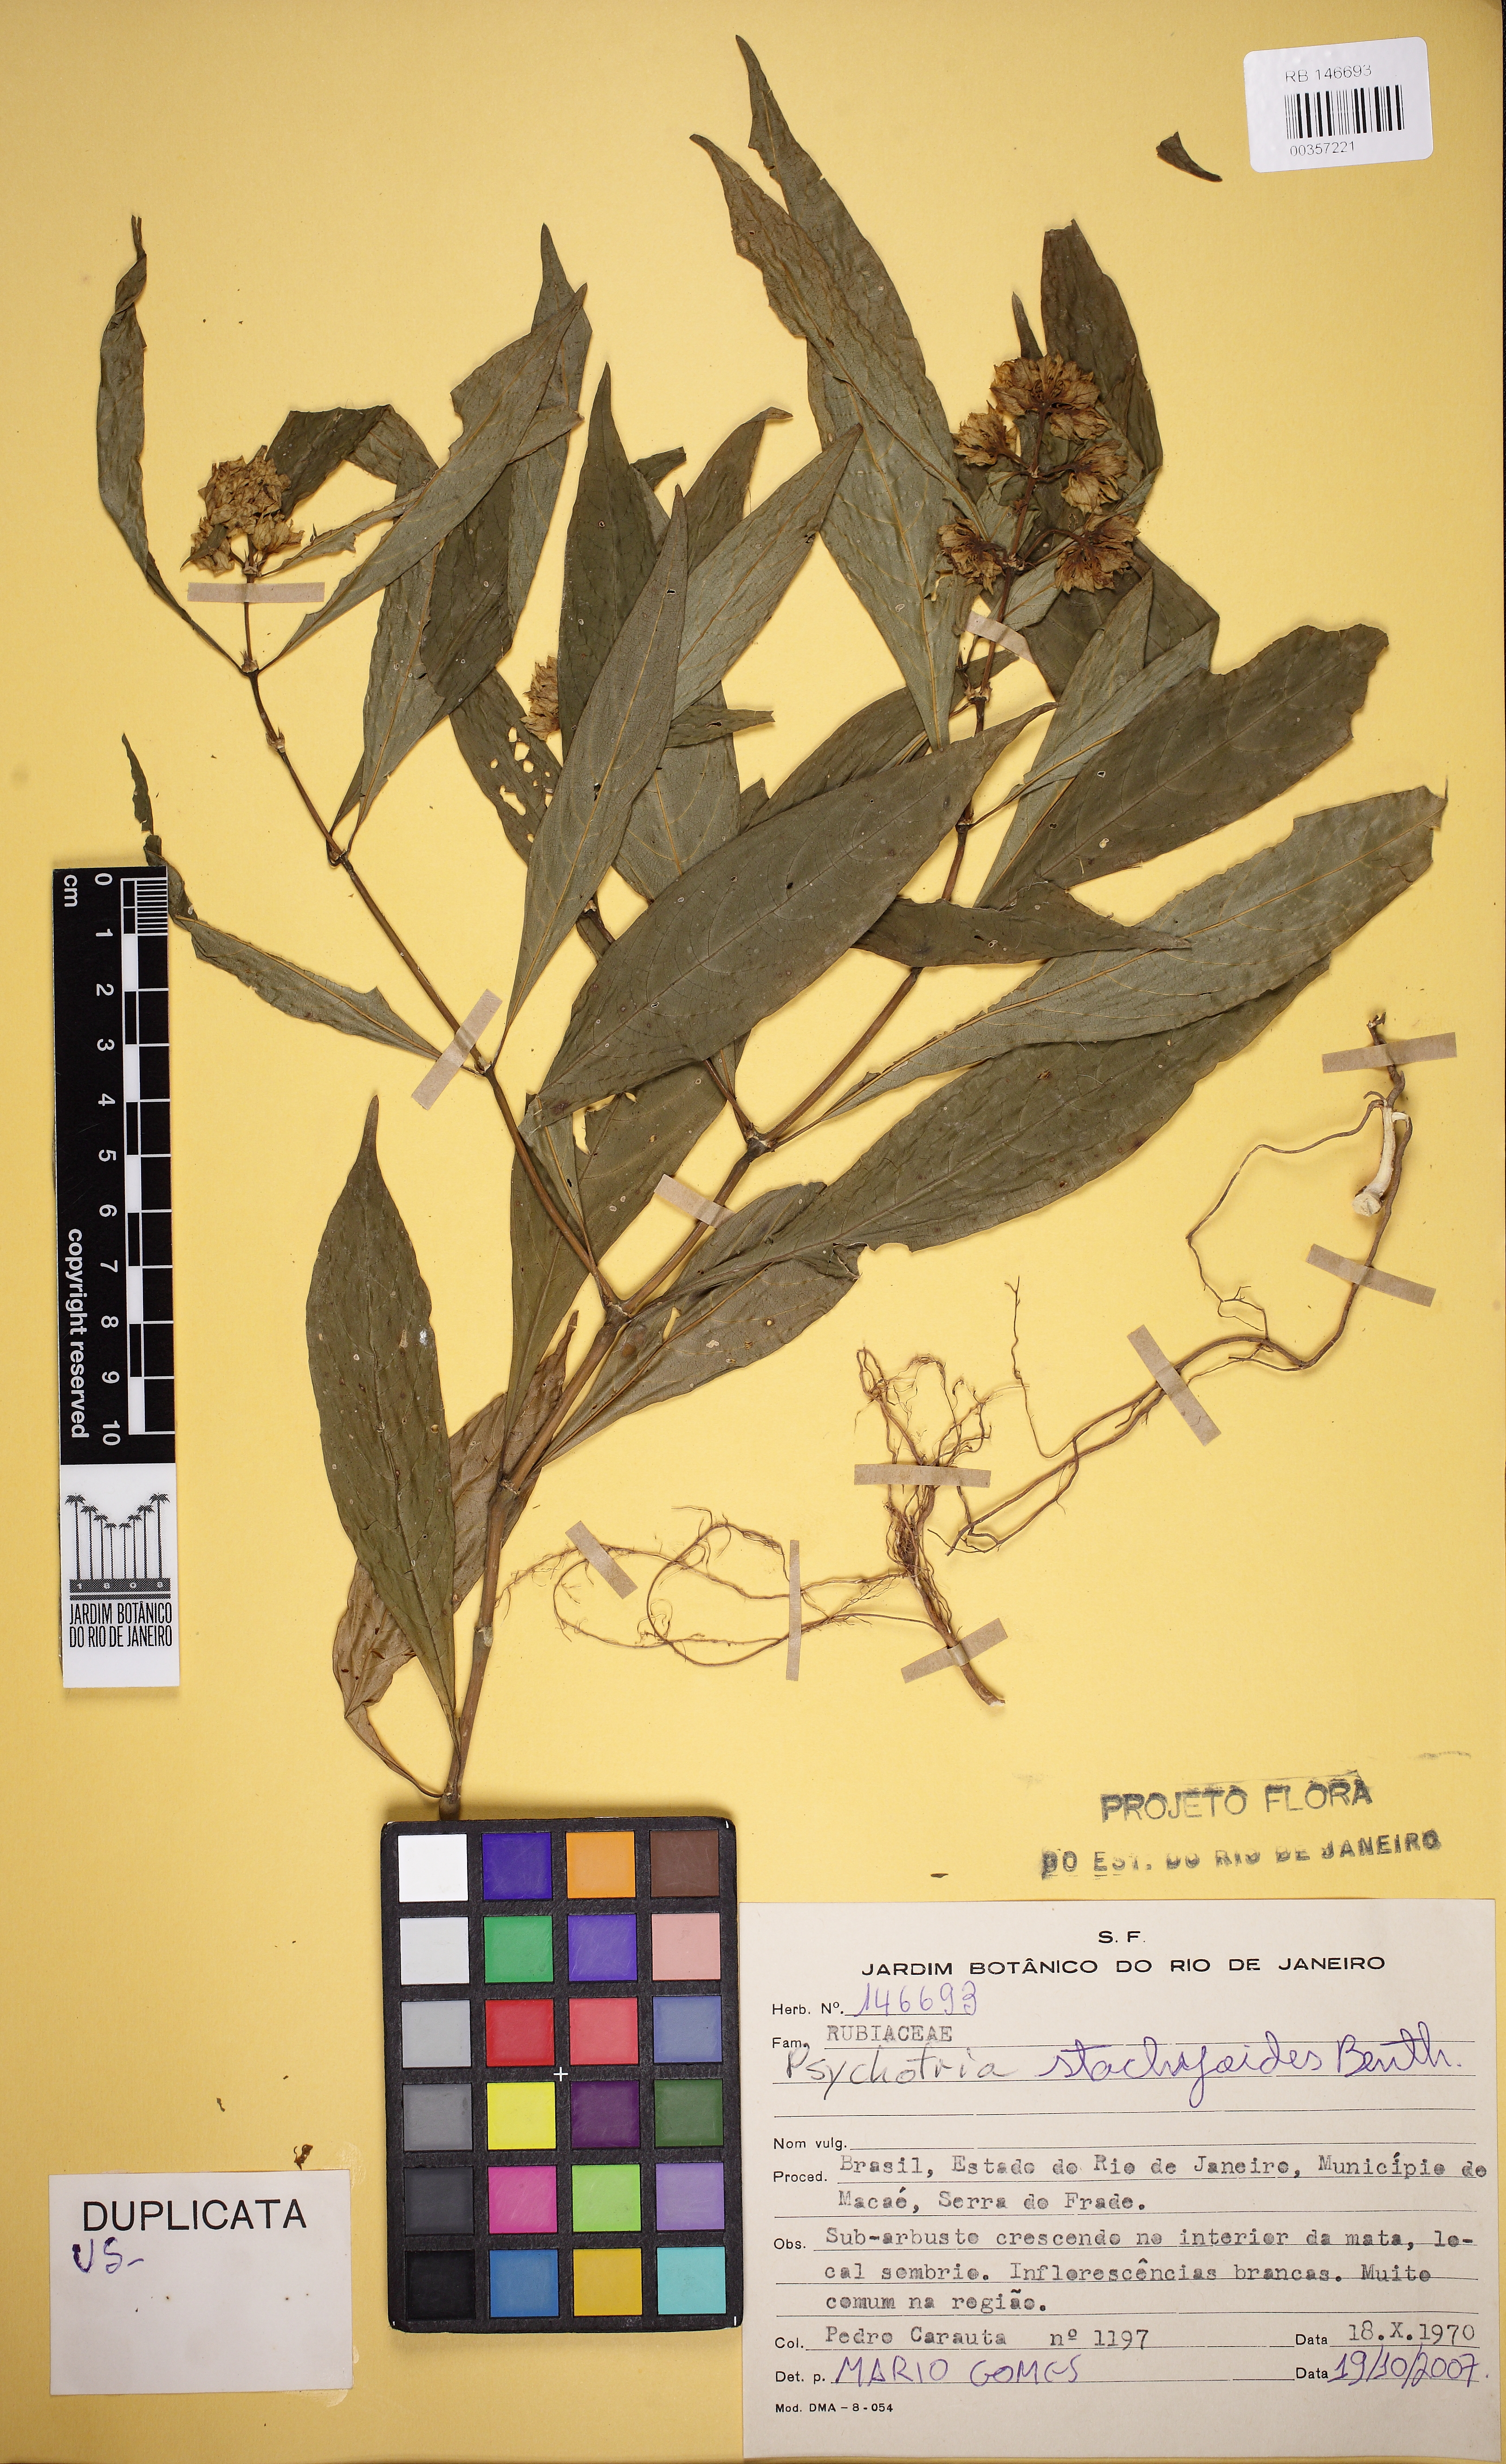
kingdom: Plantae
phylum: Tracheophyta
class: Magnoliopsida
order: Gentianales
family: Rubiaceae
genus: Psychotria
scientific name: Psychotria stachyoides
